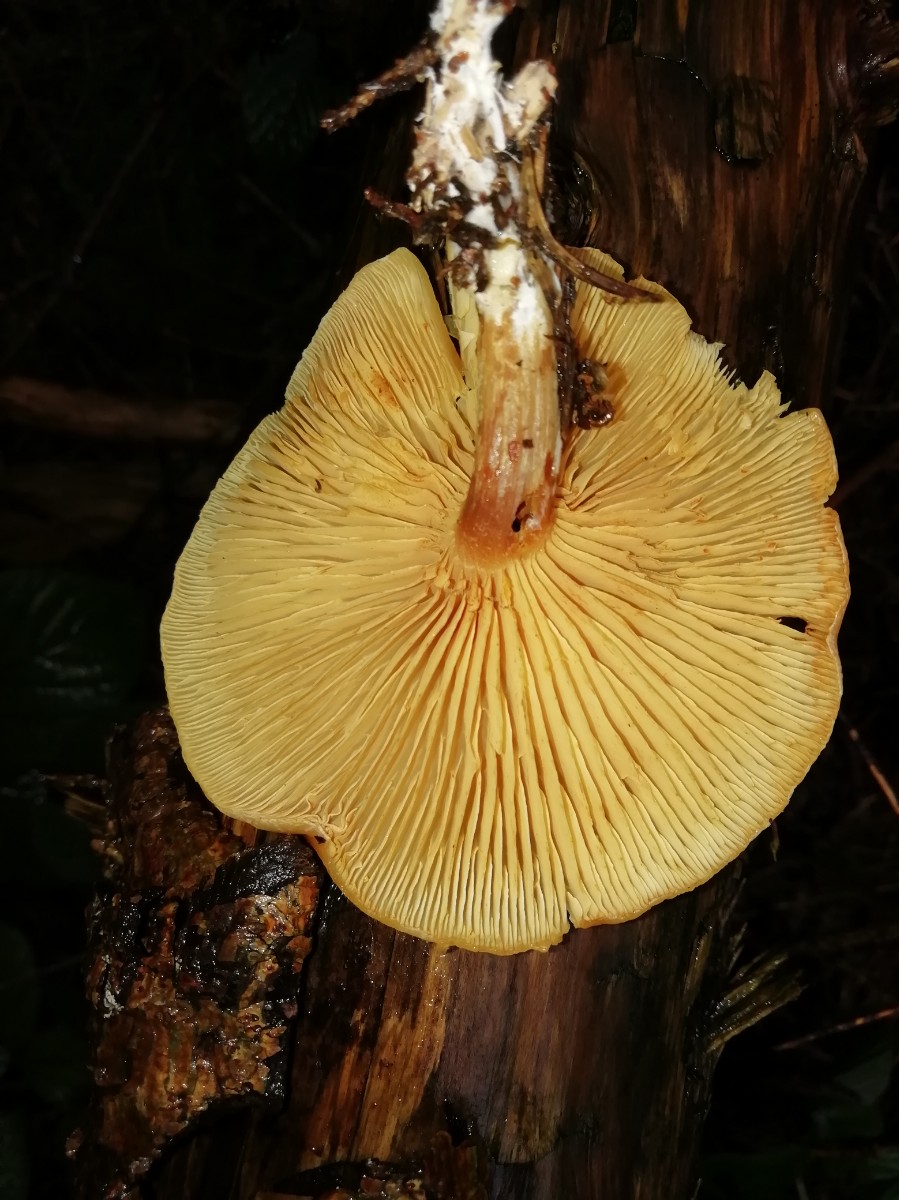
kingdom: Fungi
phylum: Basidiomycota
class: Agaricomycetes
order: Agaricales
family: Hymenogastraceae
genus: Gymnopilus
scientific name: Gymnopilus penetrans
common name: plettet flammehat
